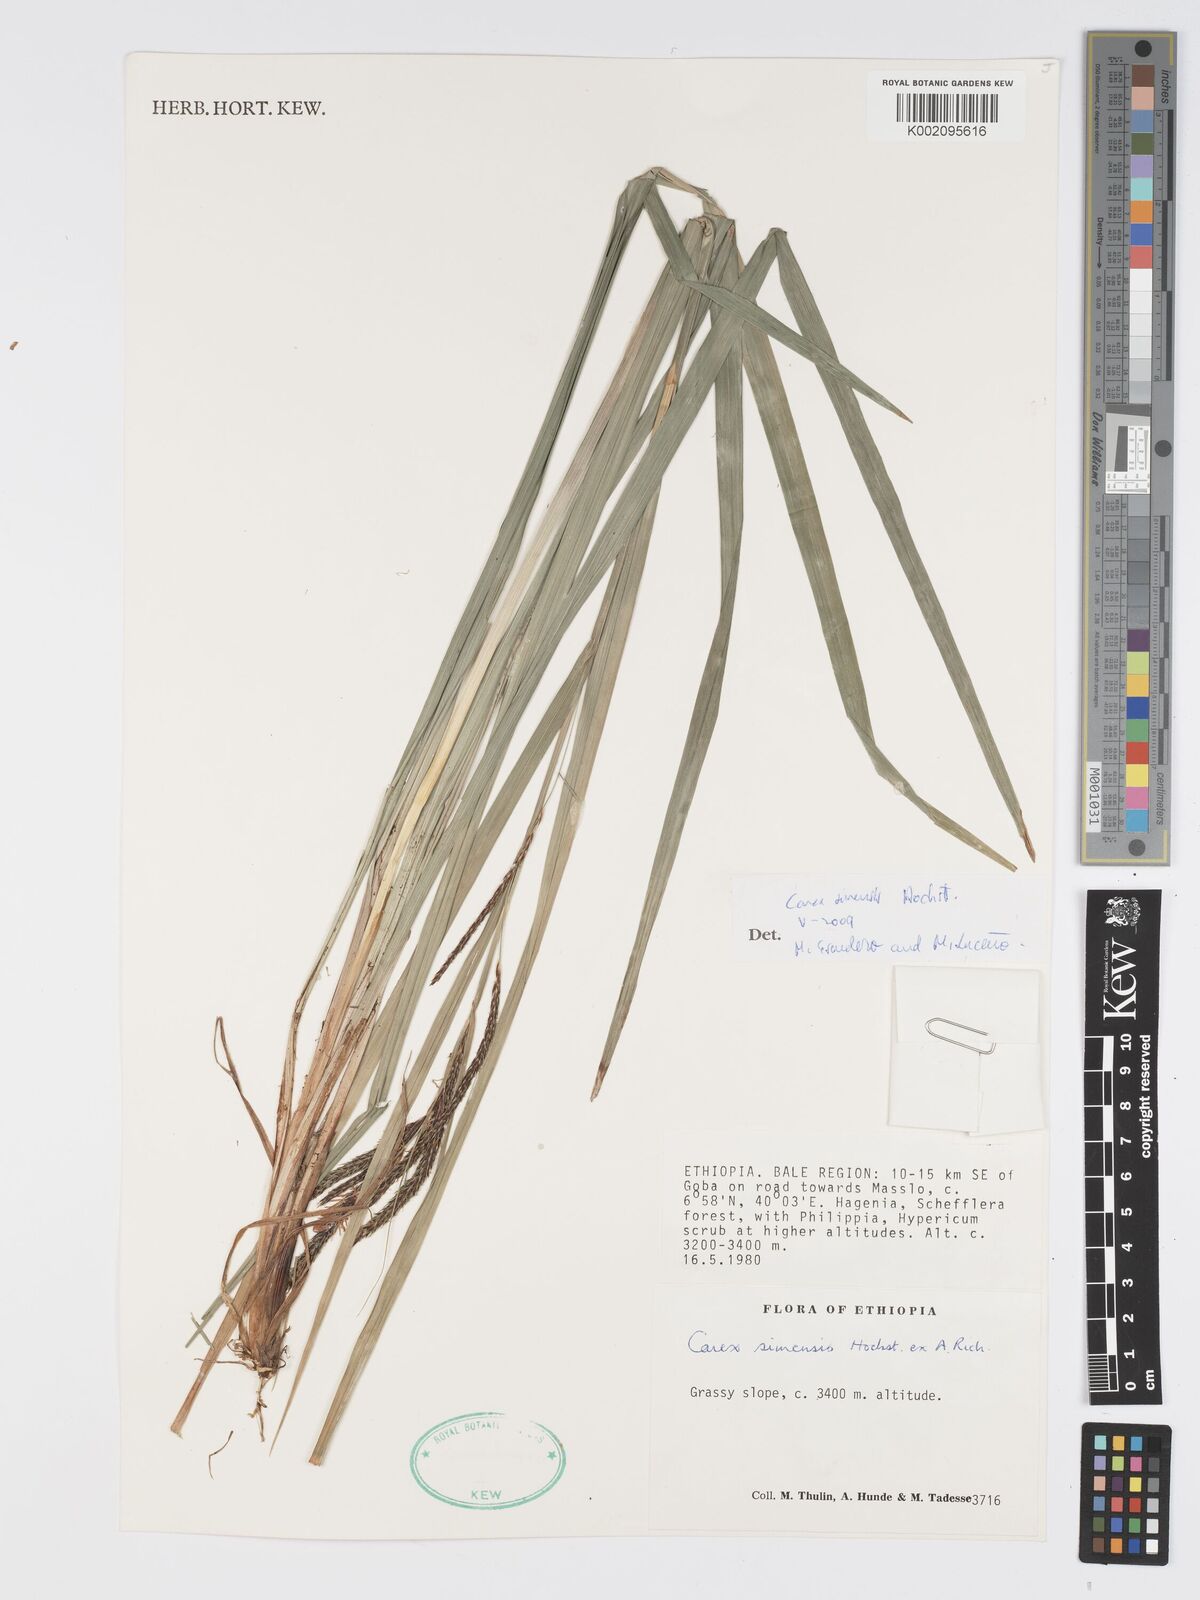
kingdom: Plantae
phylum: Tracheophyta
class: Liliopsida
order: Poales
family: Cyperaceae
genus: Carex
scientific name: Carex simensis
